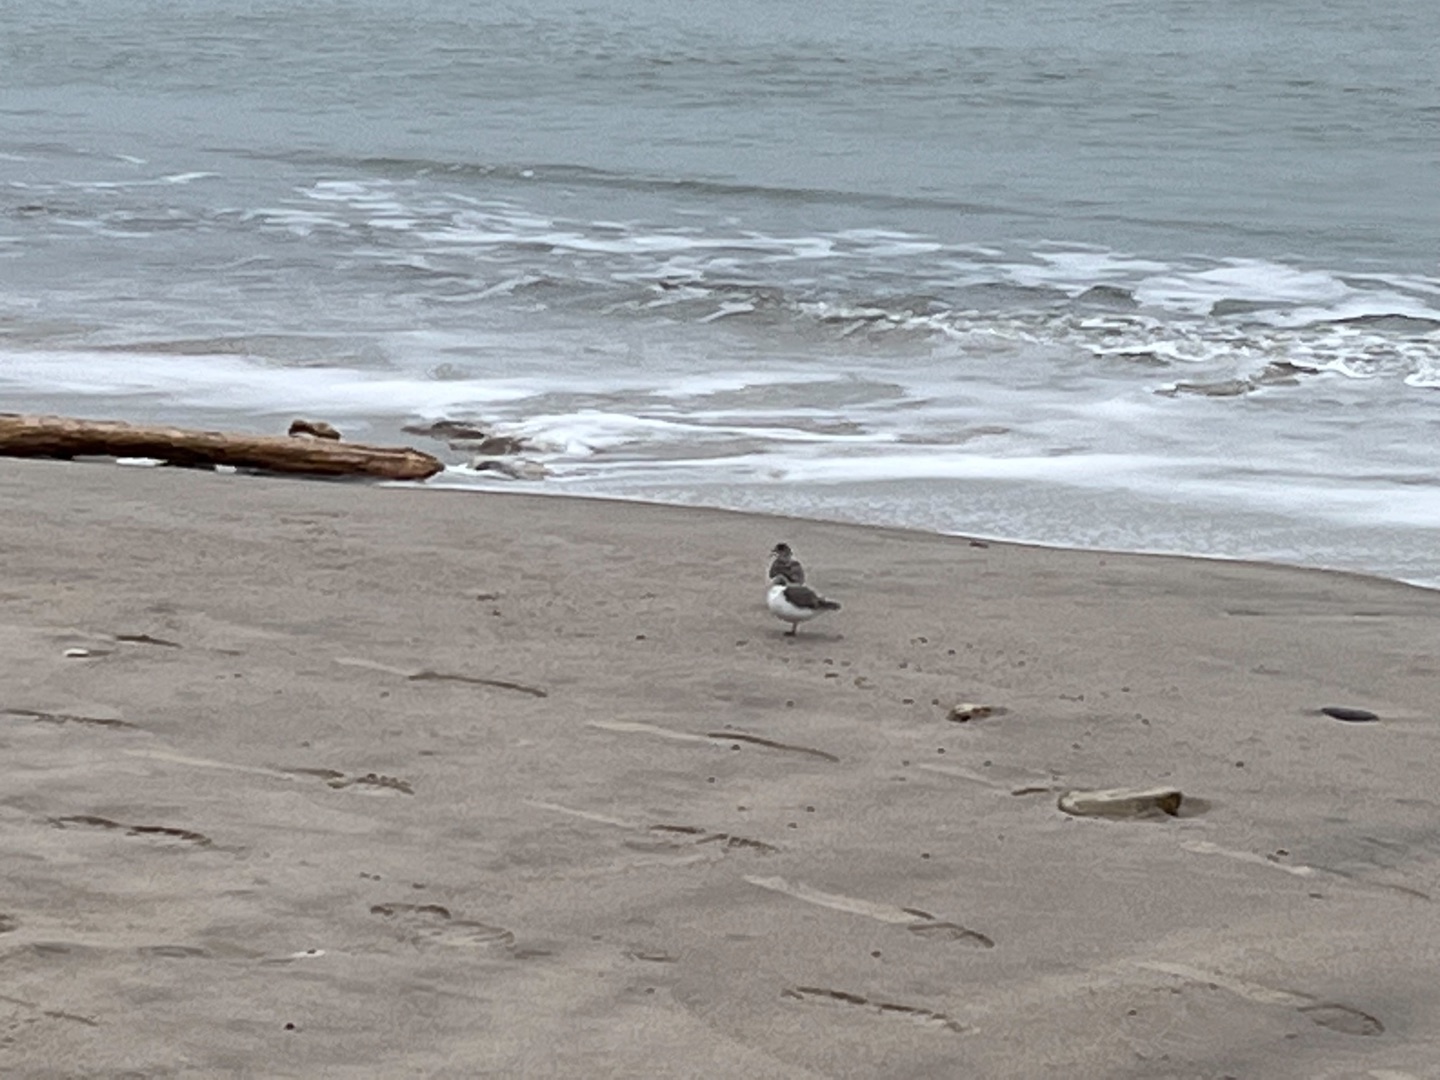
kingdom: Animalia
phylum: Chordata
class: Aves
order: Charadriiformes
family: Scolopacidae
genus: Calidris
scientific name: Calidris alba
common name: Sandløber
